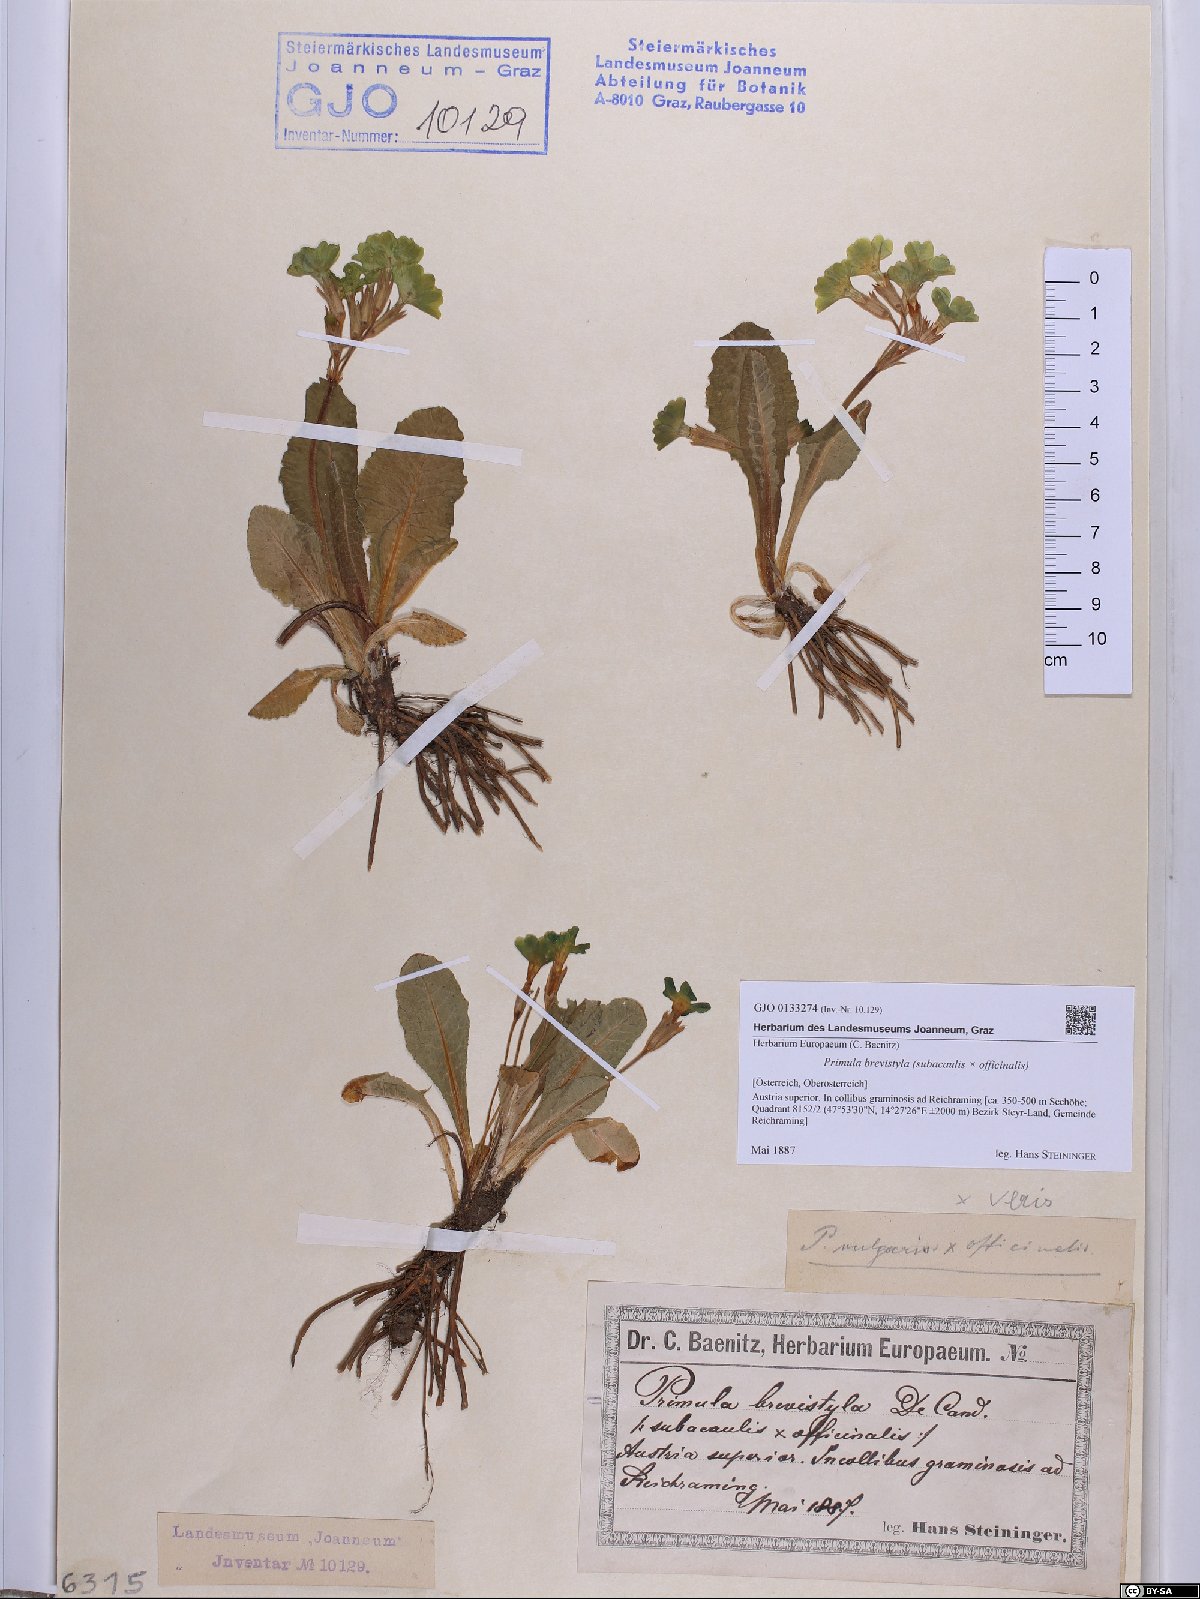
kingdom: Plantae
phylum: Tracheophyta
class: Magnoliopsida
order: Ericales
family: Primulaceae
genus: Primula
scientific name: Primula polyantha
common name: False oxlip
